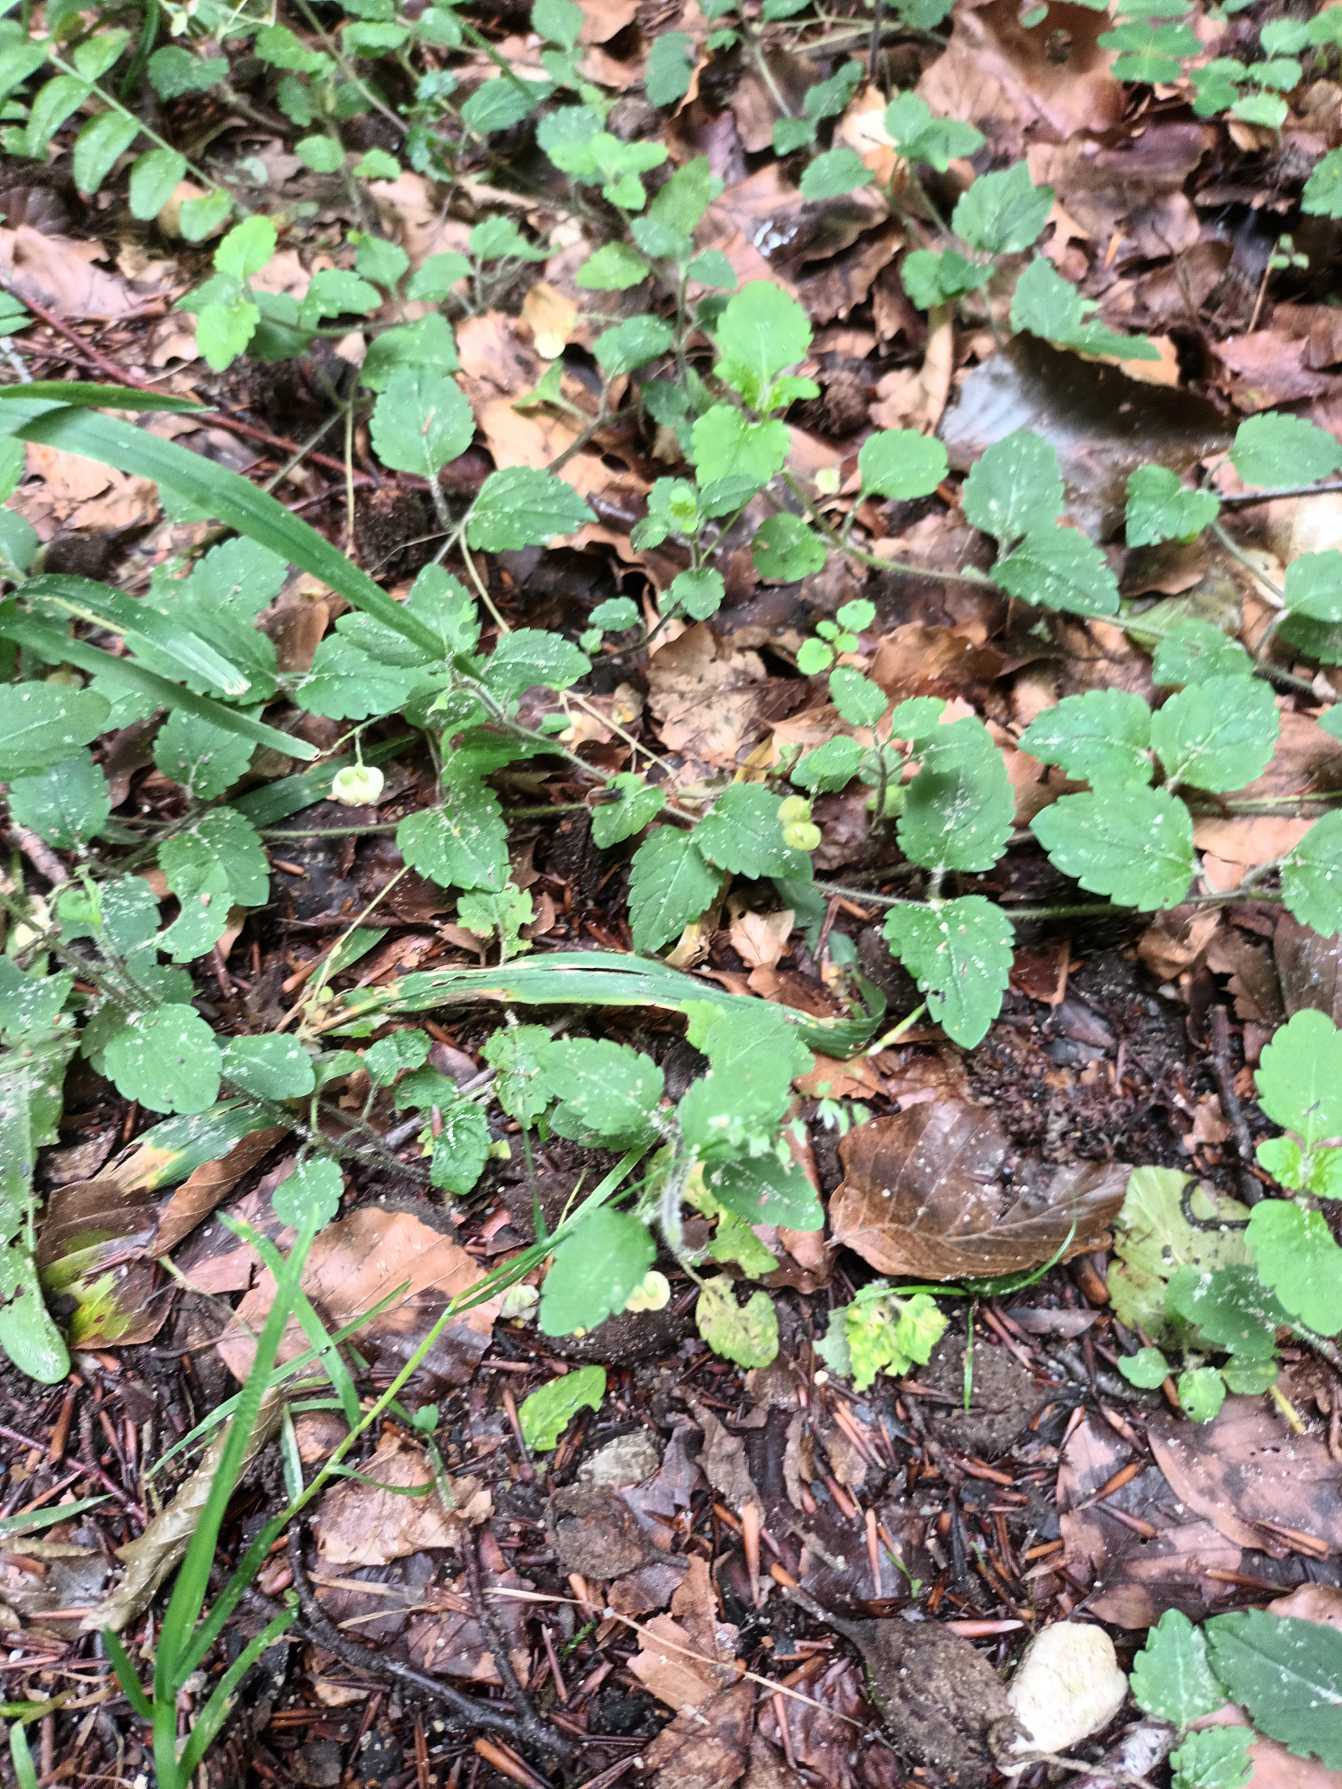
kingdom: Plantae
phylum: Tracheophyta
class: Magnoliopsida
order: Lamiales
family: Plantaginaceae
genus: Veronica
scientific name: Veronica montana
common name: Bjerg-ærenpris
